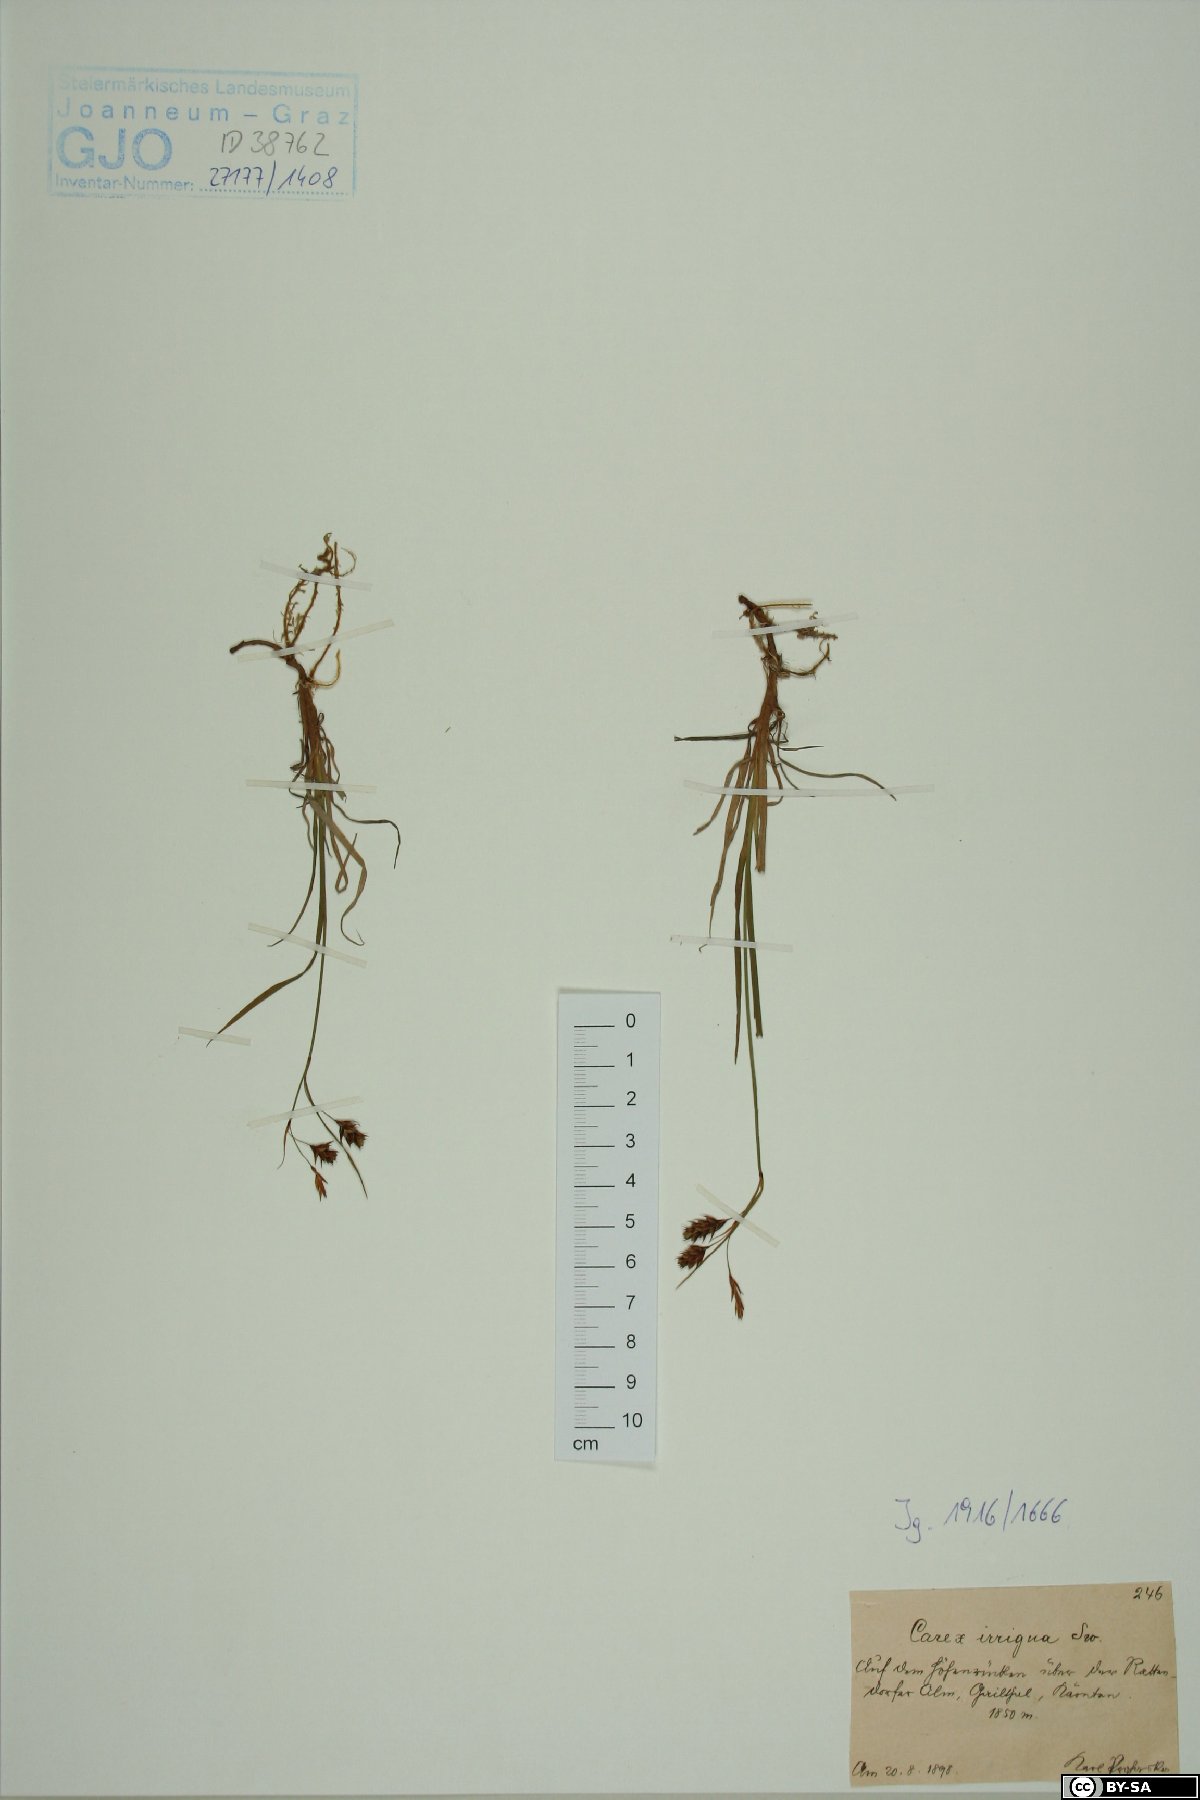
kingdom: Plantae
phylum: Tracheophyta
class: Liliopsida
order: Poales
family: Cyperaceae
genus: Carex
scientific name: Carex magellanica
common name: Bog sedge
